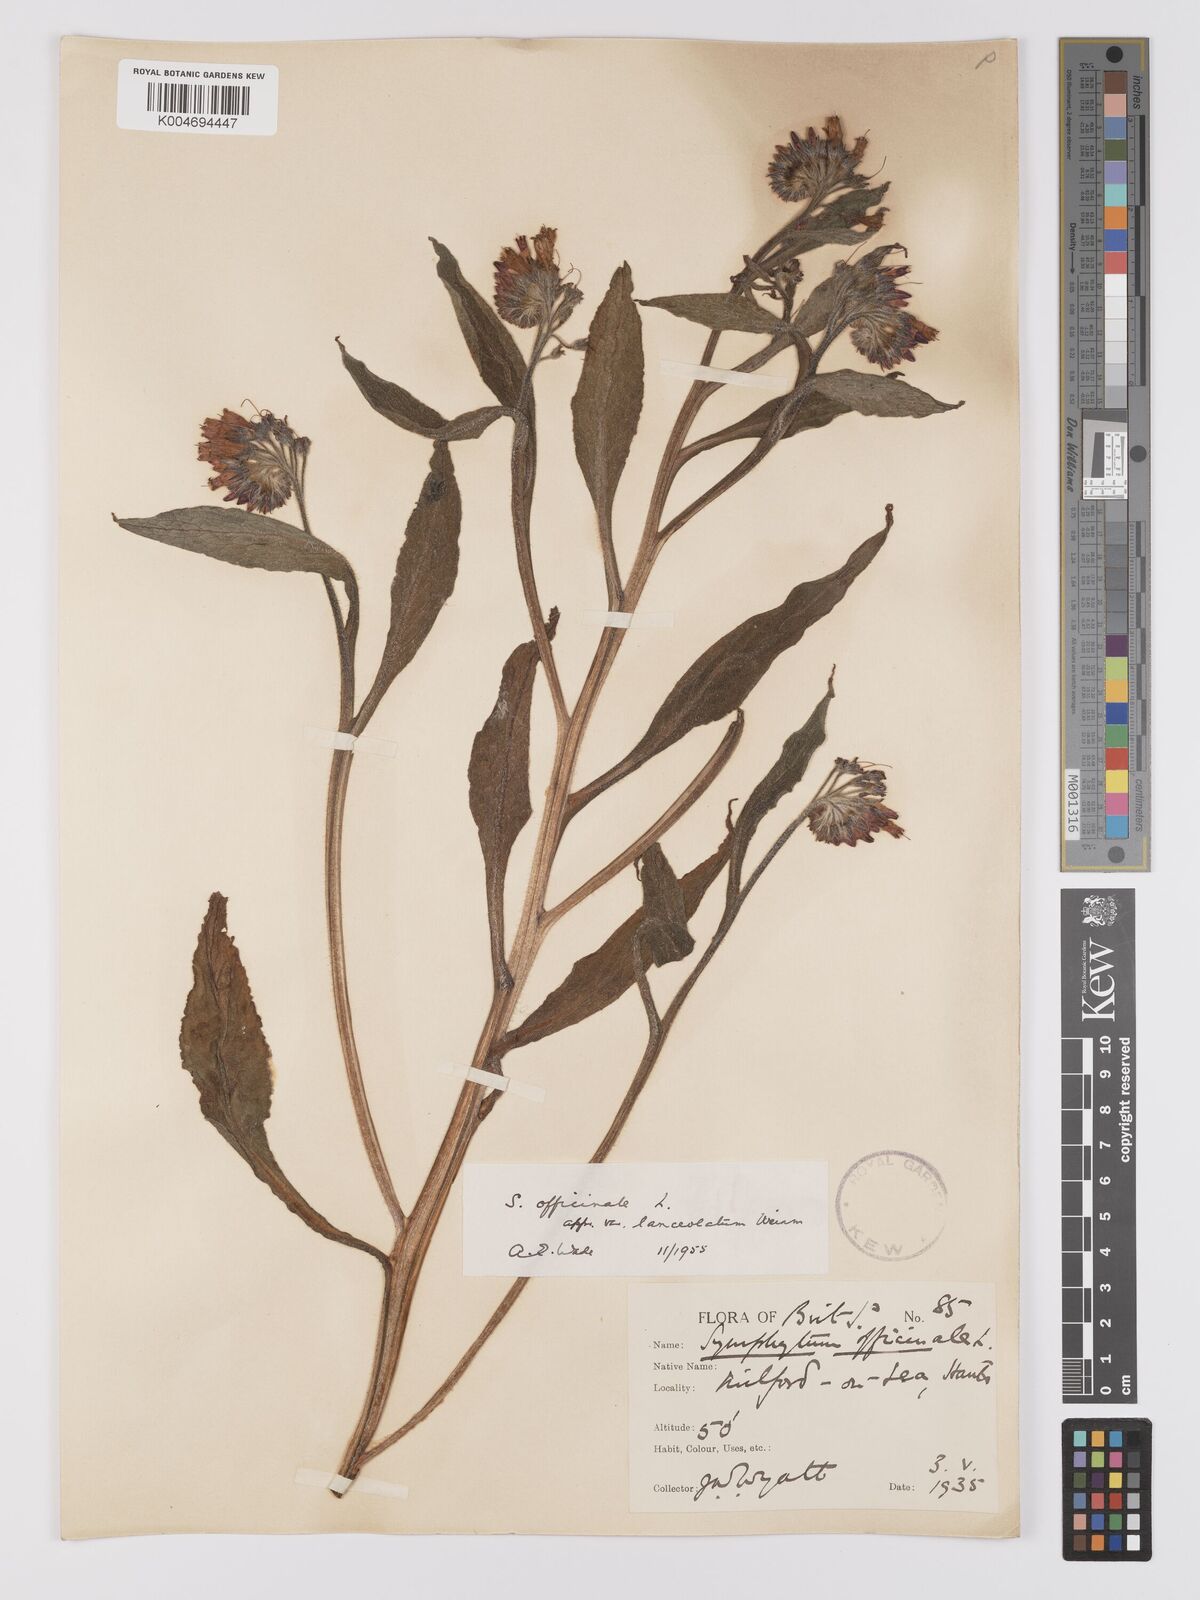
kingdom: Plantae
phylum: Tracheophyta
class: Magnoliopsida
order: Boraginales
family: Boraginaceae
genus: Symphytum
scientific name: Symphytum officinale
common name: Common comfrey
